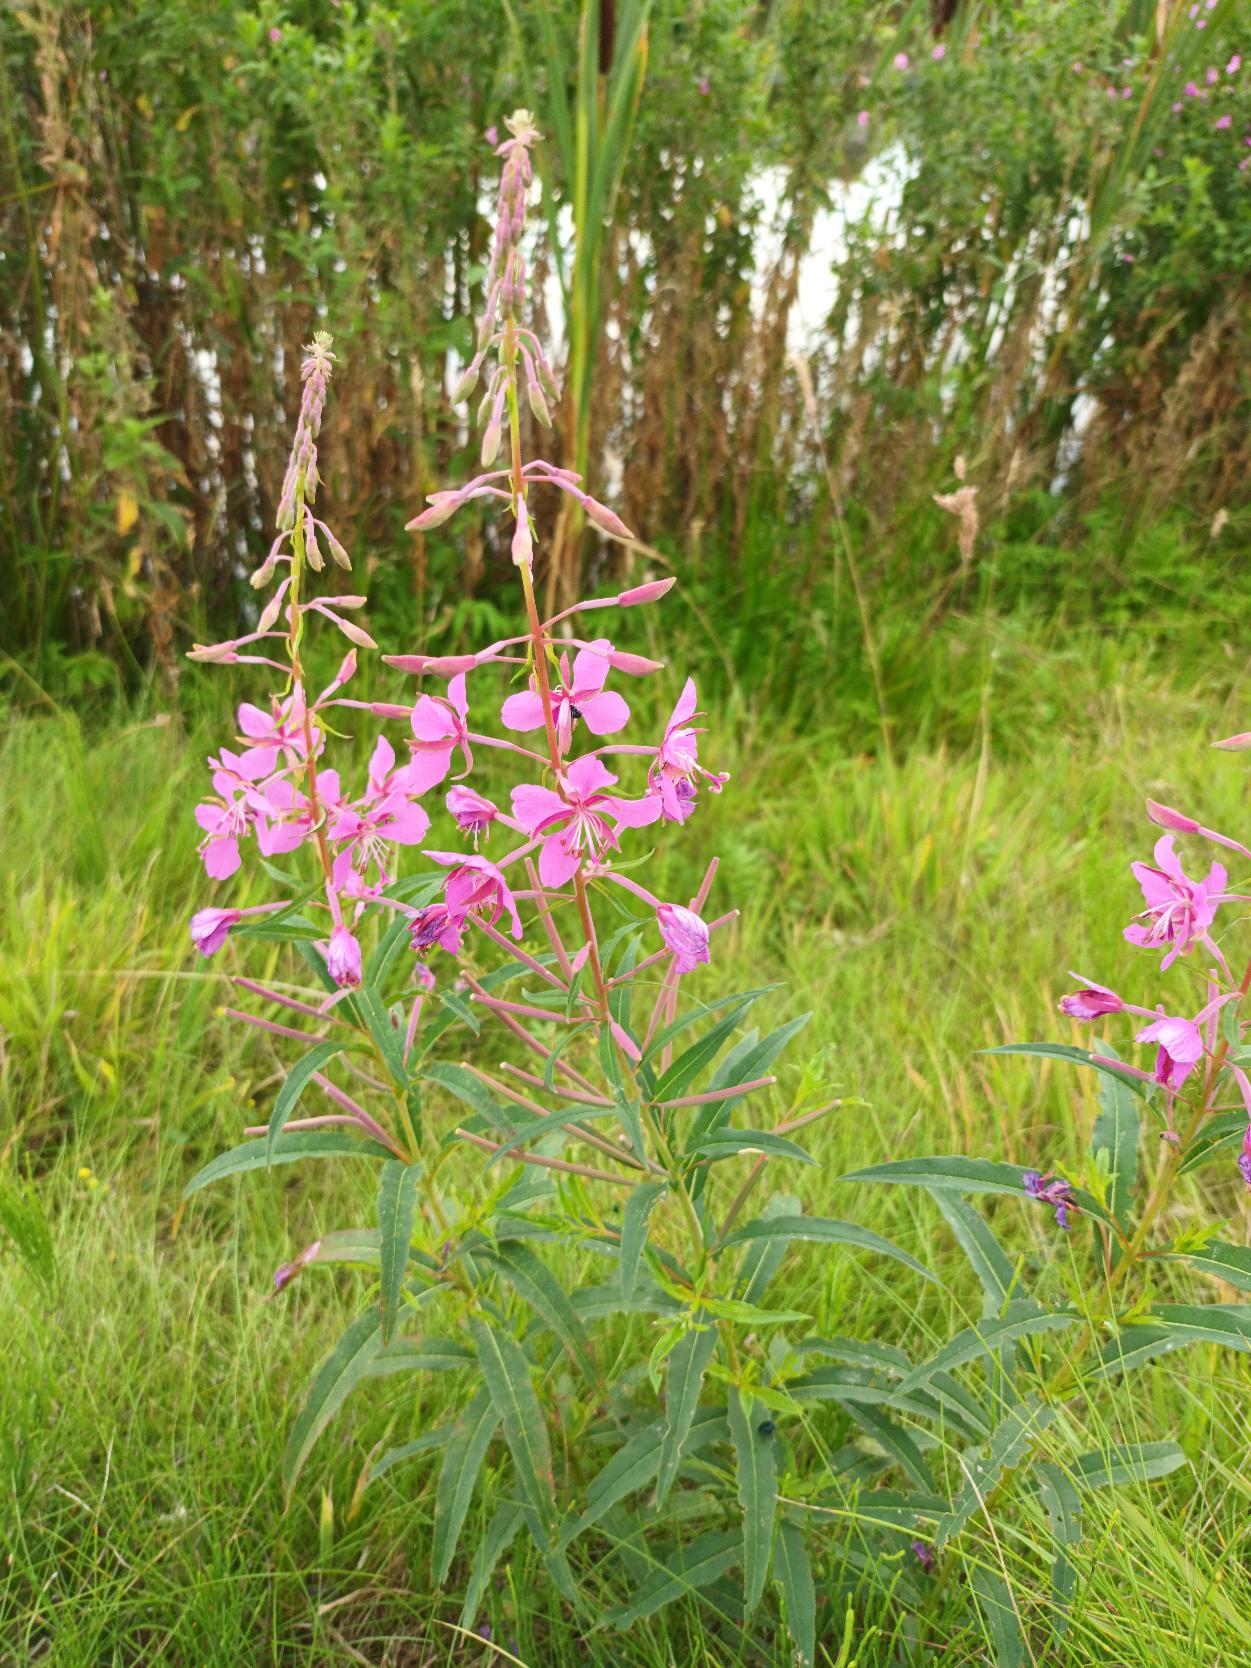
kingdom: Plantae
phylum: Tracheophyta
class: Magnoliopsida
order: Myrtales
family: Onagraceae
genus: Chamaenerion
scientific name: Chamaenerion angustifolium
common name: Gederams
